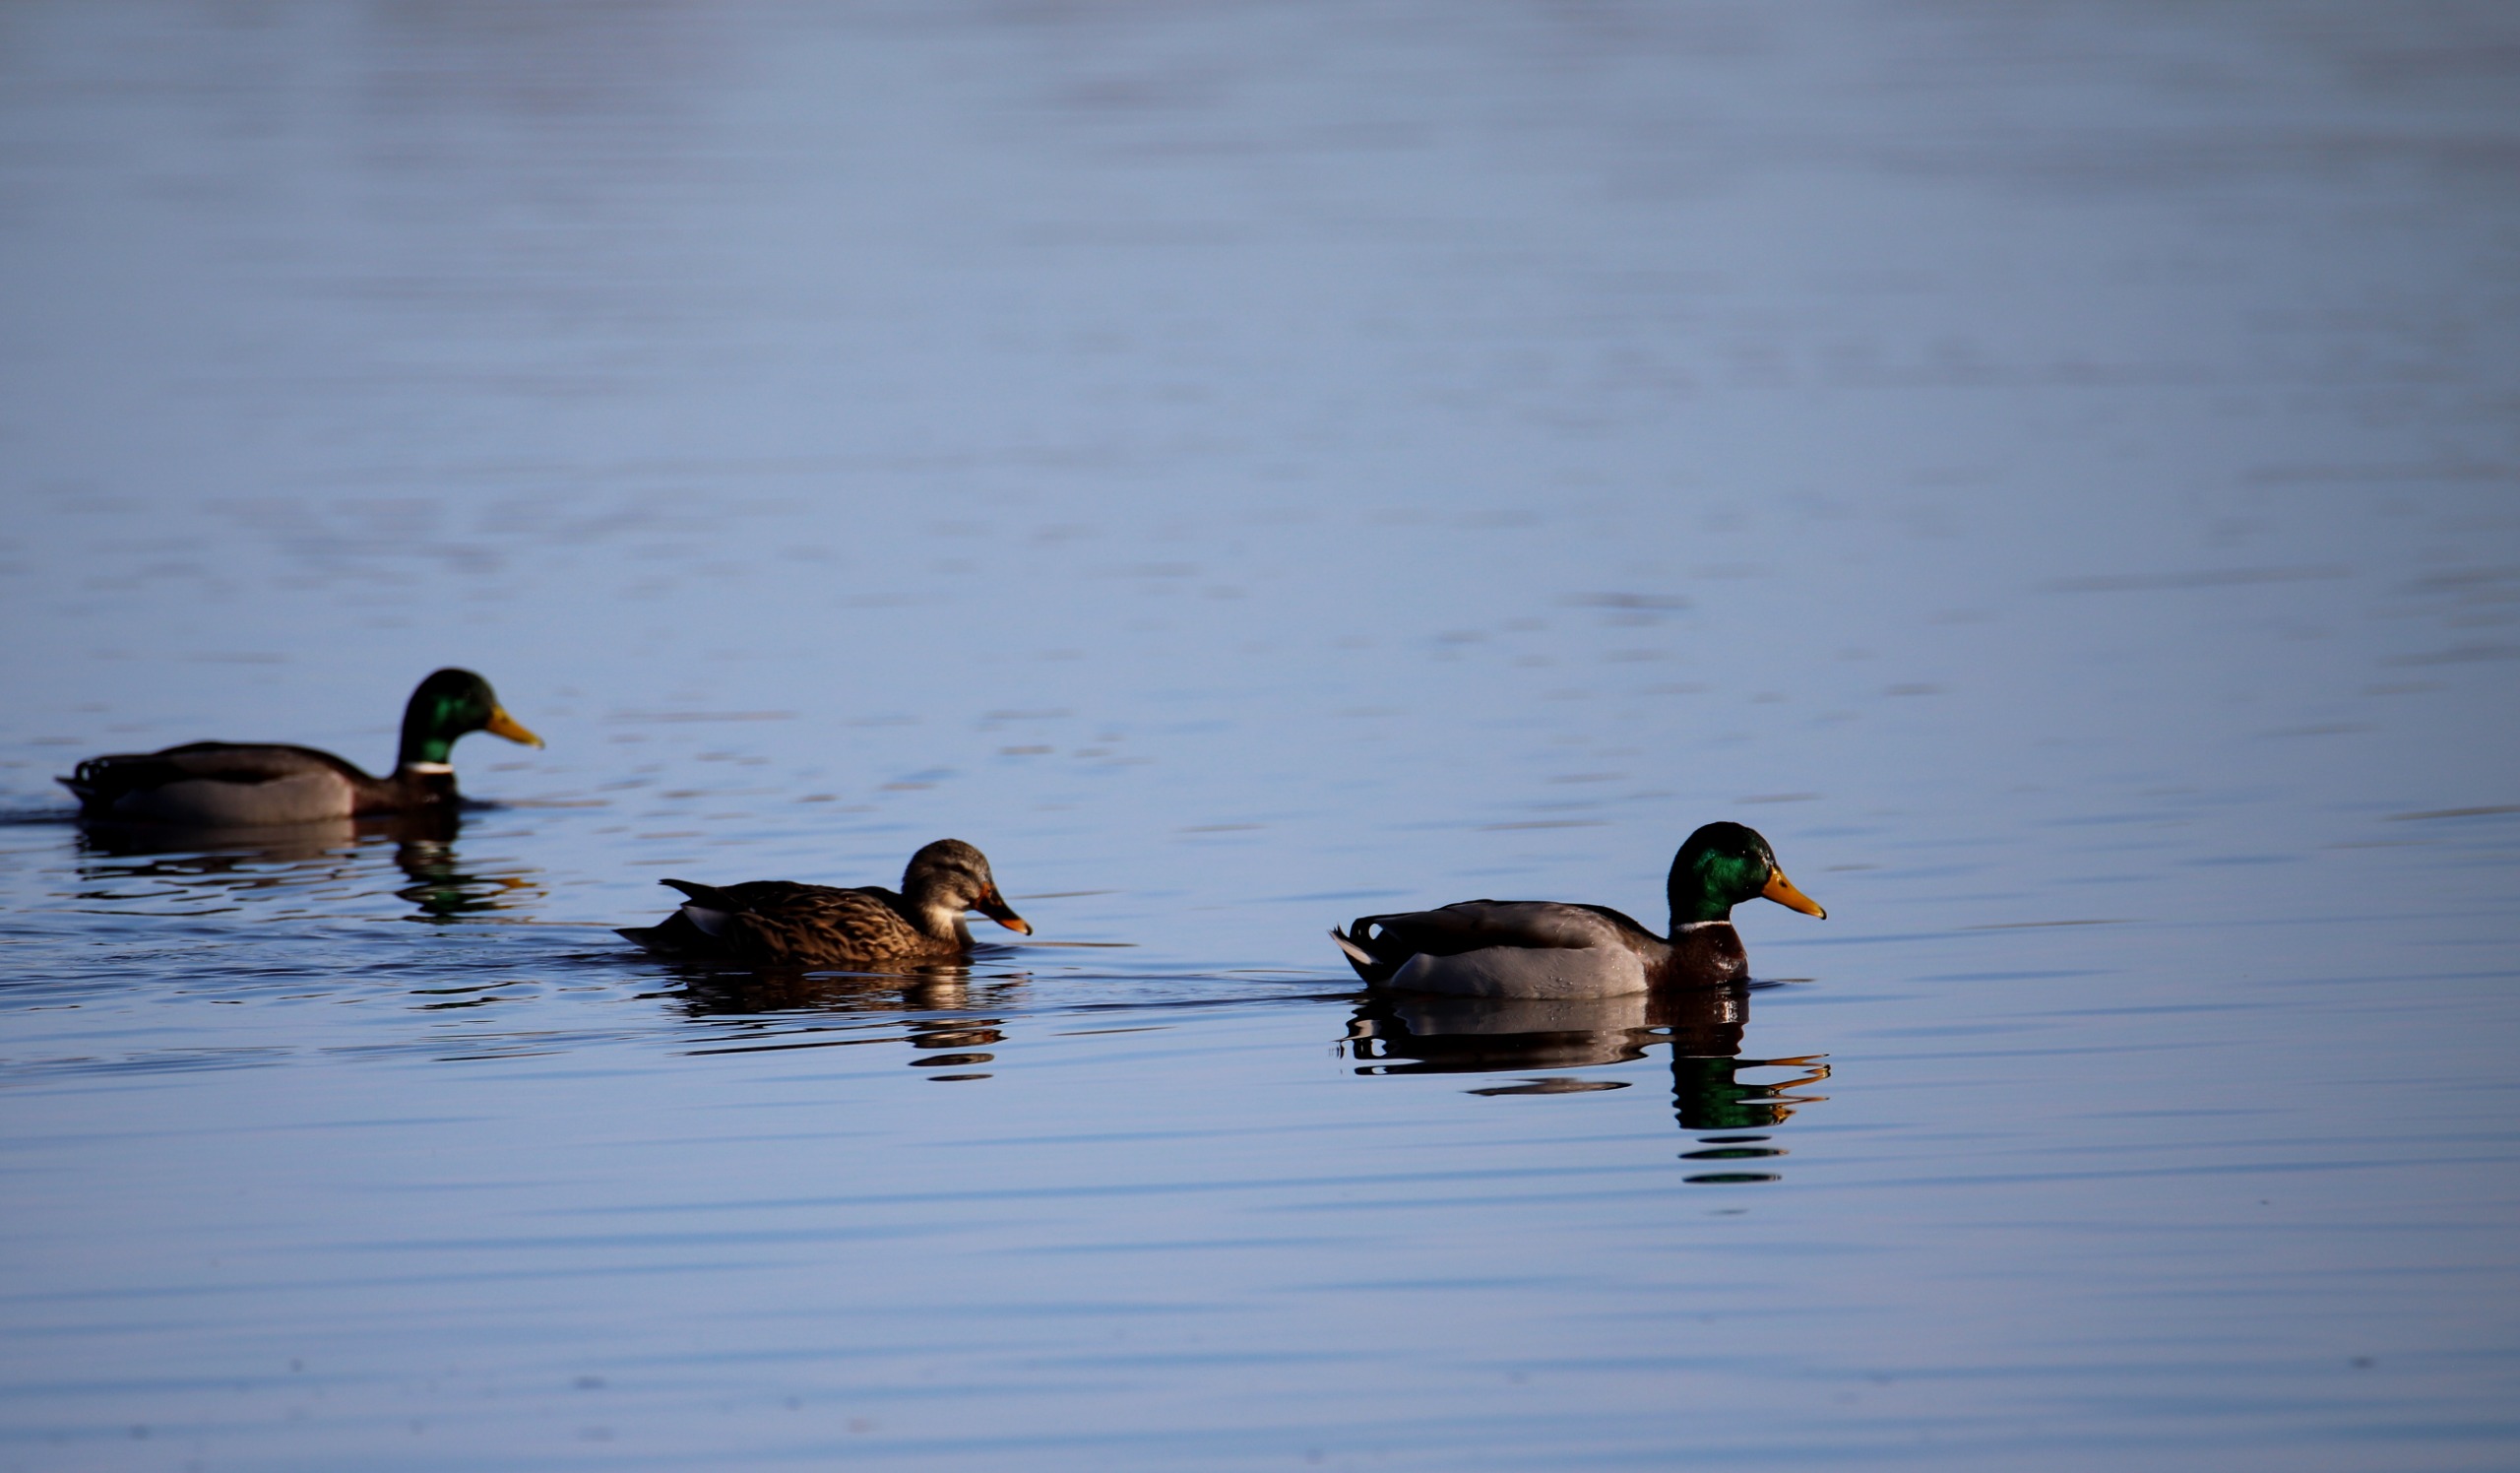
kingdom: Animalia
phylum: Chordata
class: Aves
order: Anseriformes
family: Anatidae
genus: Anas
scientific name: Anas platyrhynchos
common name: Gråand
